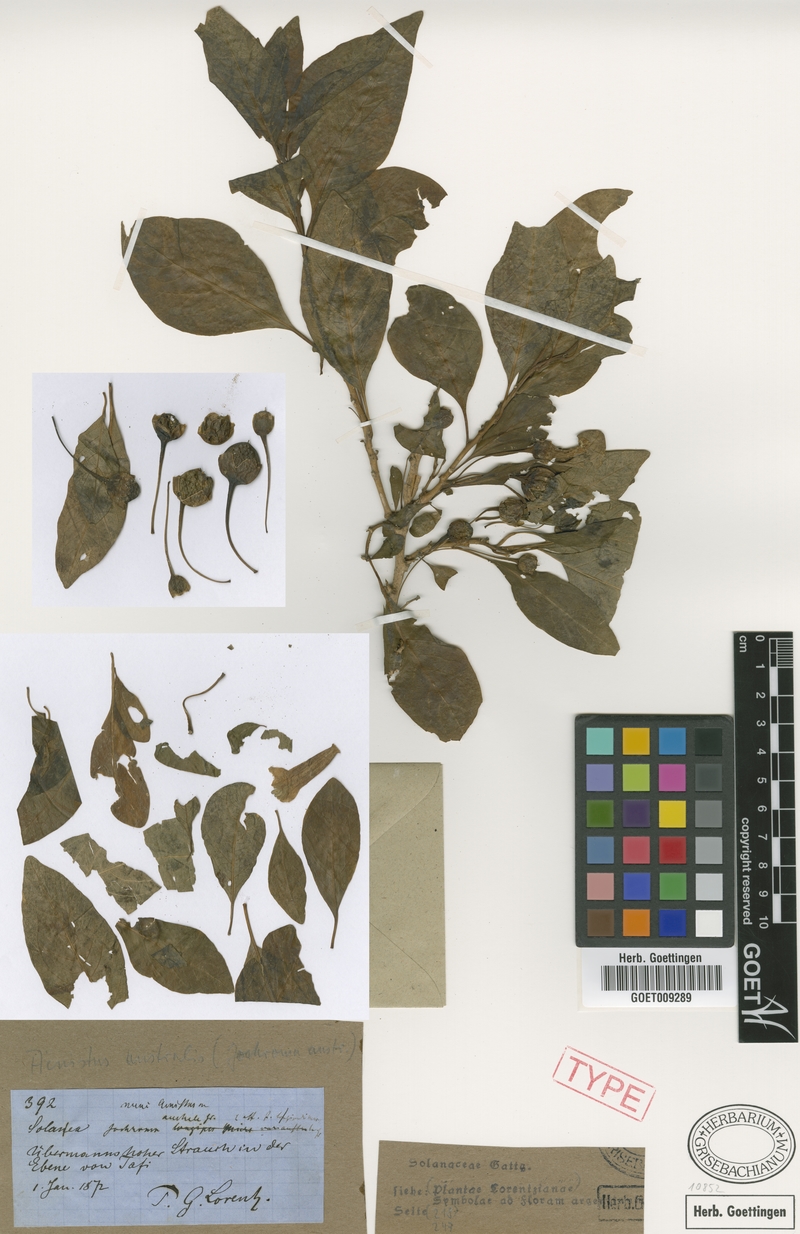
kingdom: Plantae
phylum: Tracheophyta
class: Magnoliopsida
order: Solanales
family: Solanaceae
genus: Eriolarynx
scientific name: Eriolarynx australis
